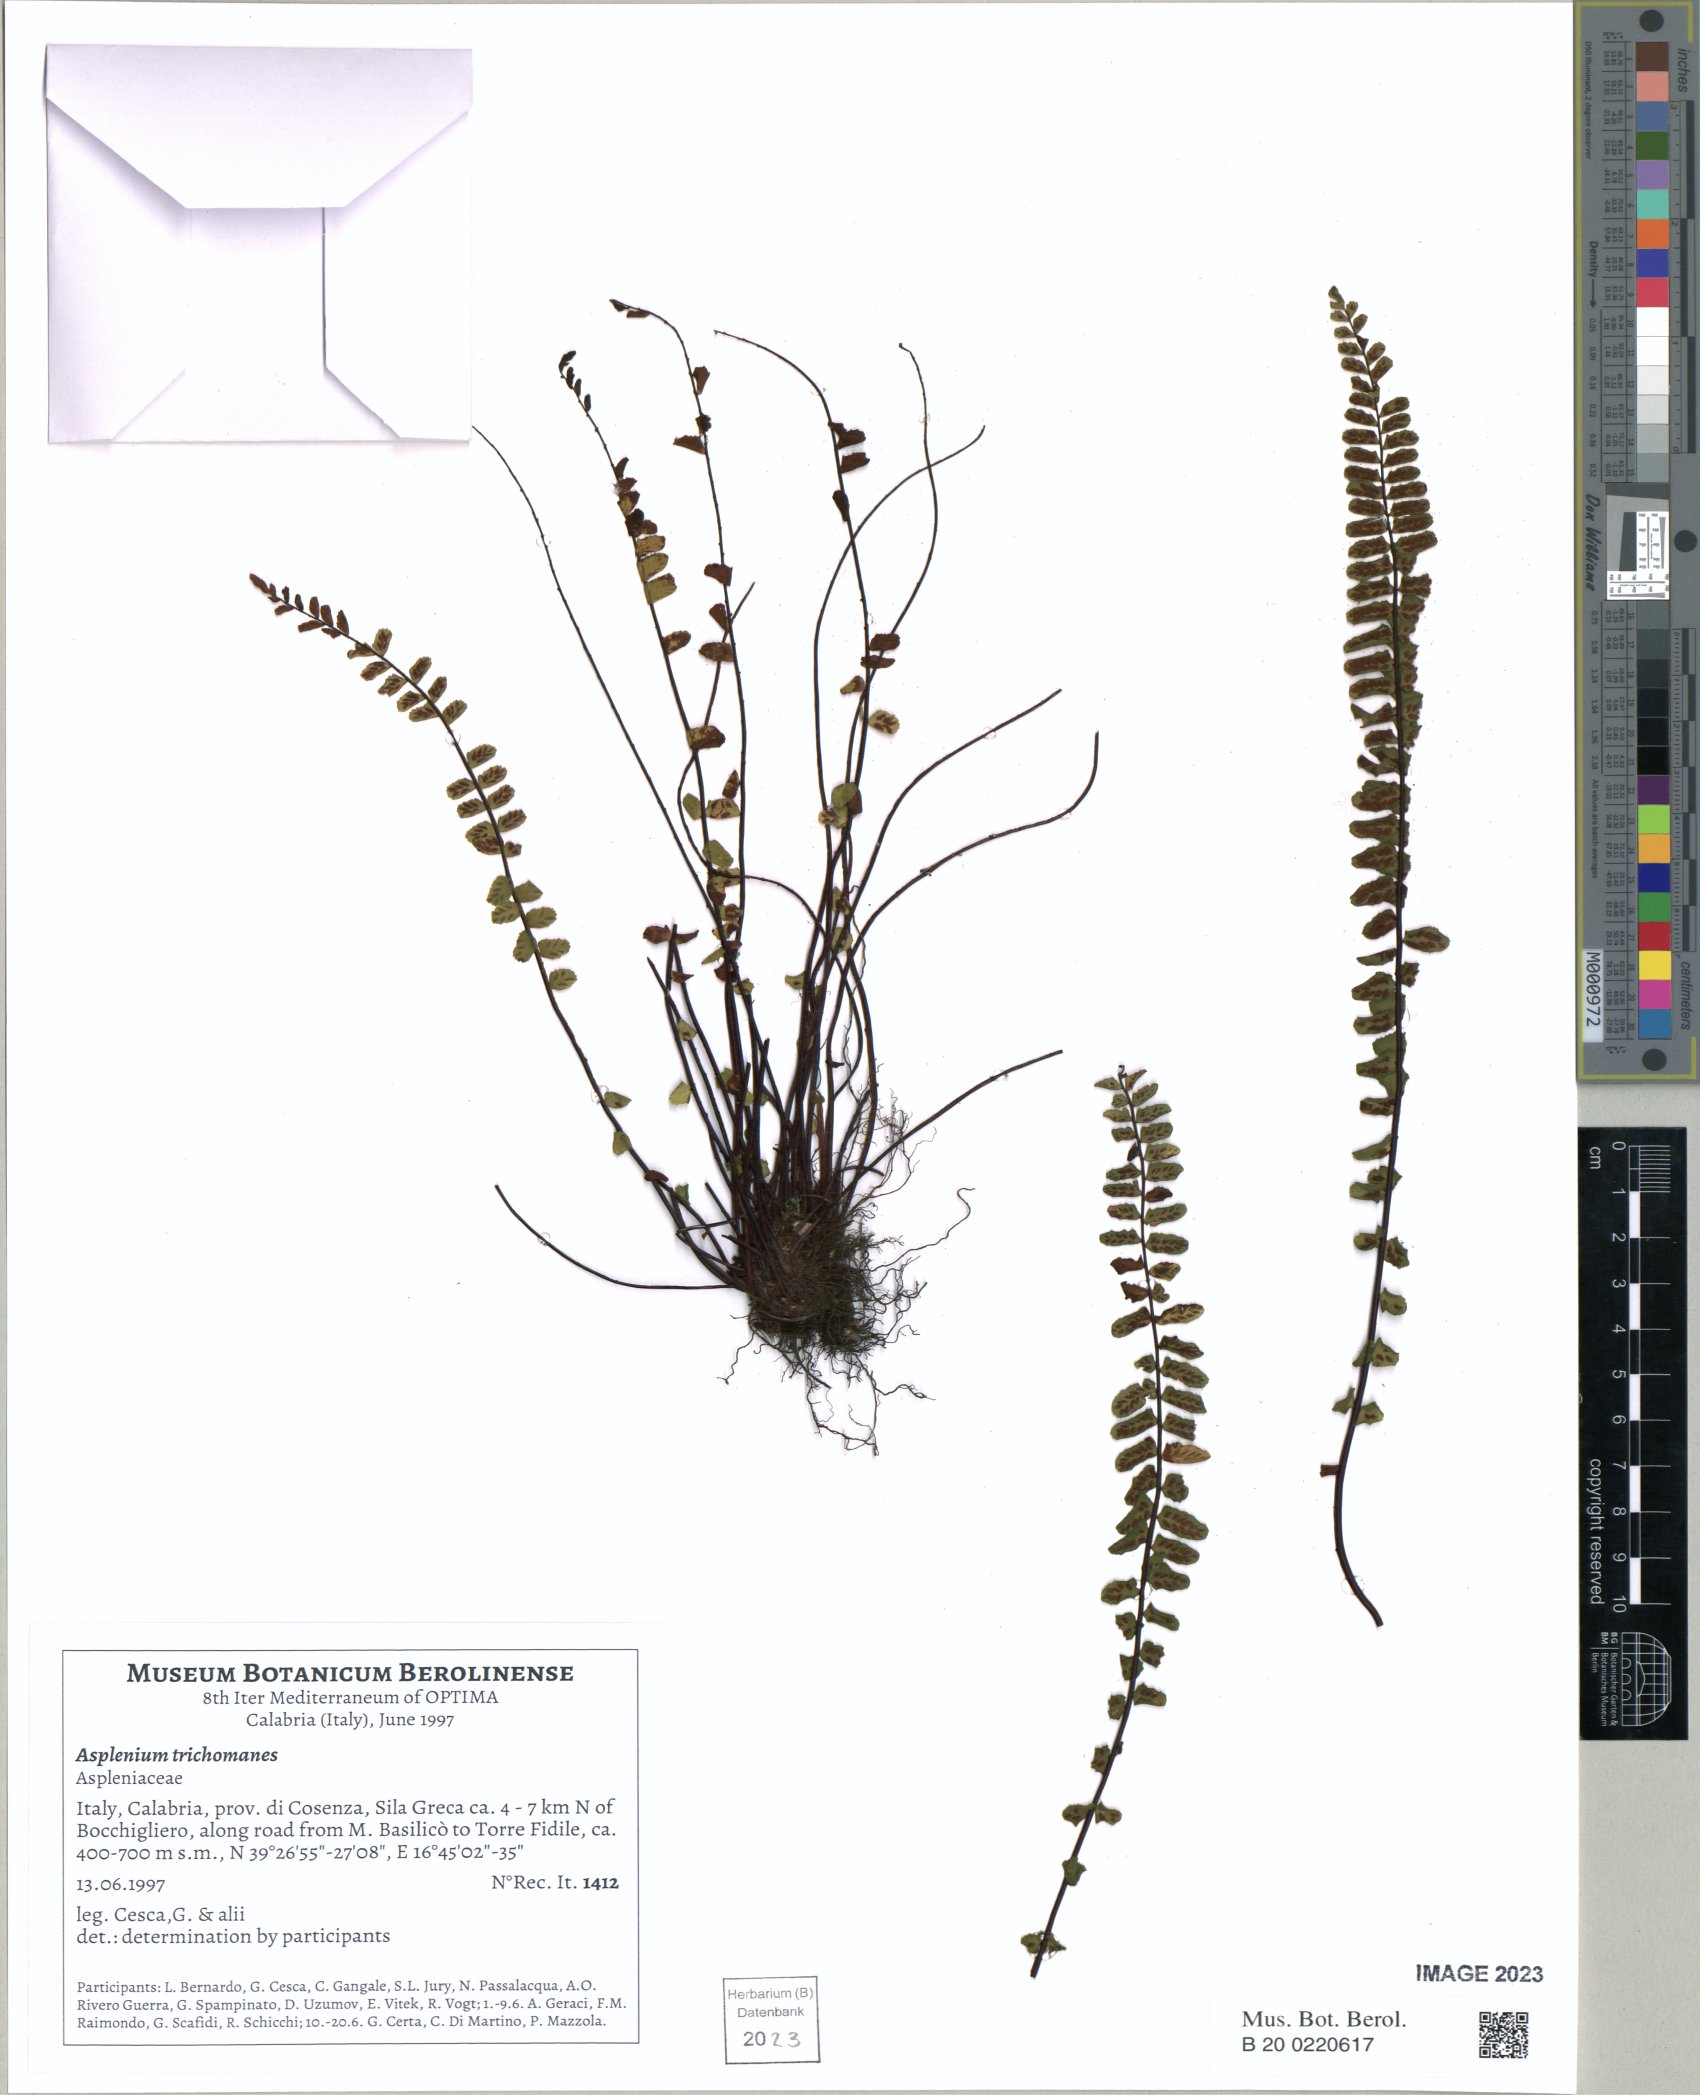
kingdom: Plantae
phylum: Tracheophyta
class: Polypodiopsida
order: Polypodiales
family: Aspleniaceae
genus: Asplenium
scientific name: Asplenium trichomanes
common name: Maidenhair spleenwort
